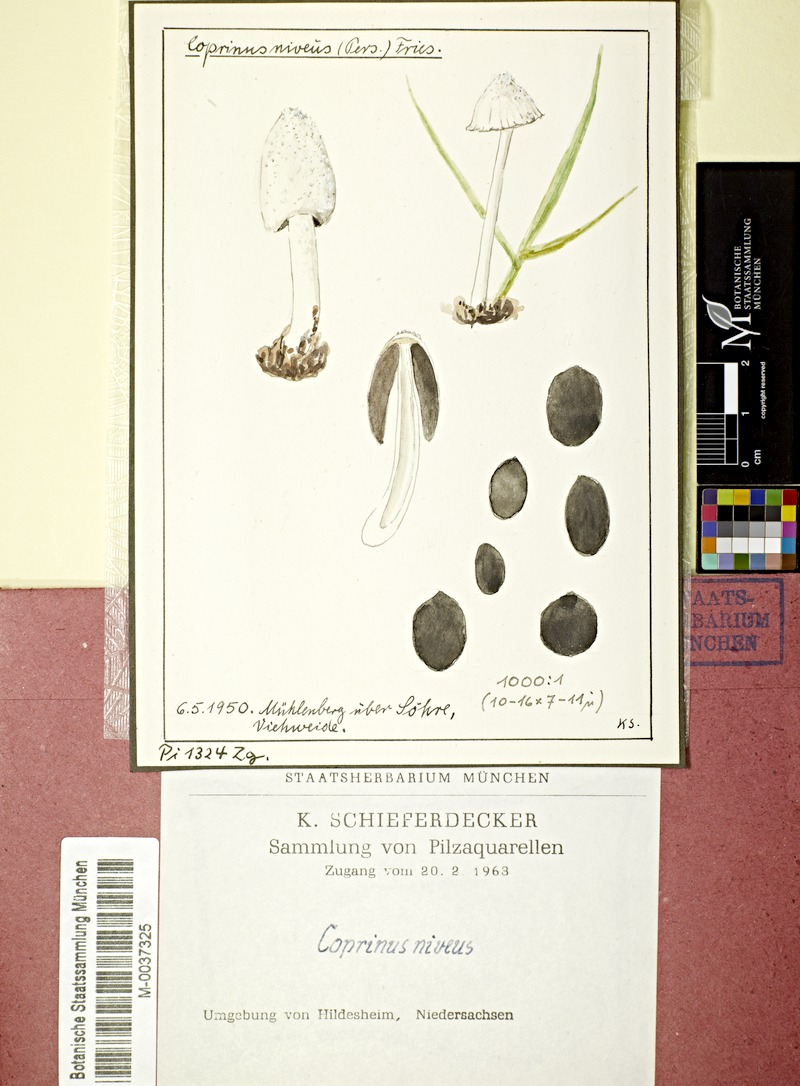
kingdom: Fungi
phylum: Basidiomycota
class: Agaricomycetes
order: Agaricales
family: Psathyrellaceae
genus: Coprinopsis
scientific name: Coprinopsis nivea
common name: Snowy inkcap
